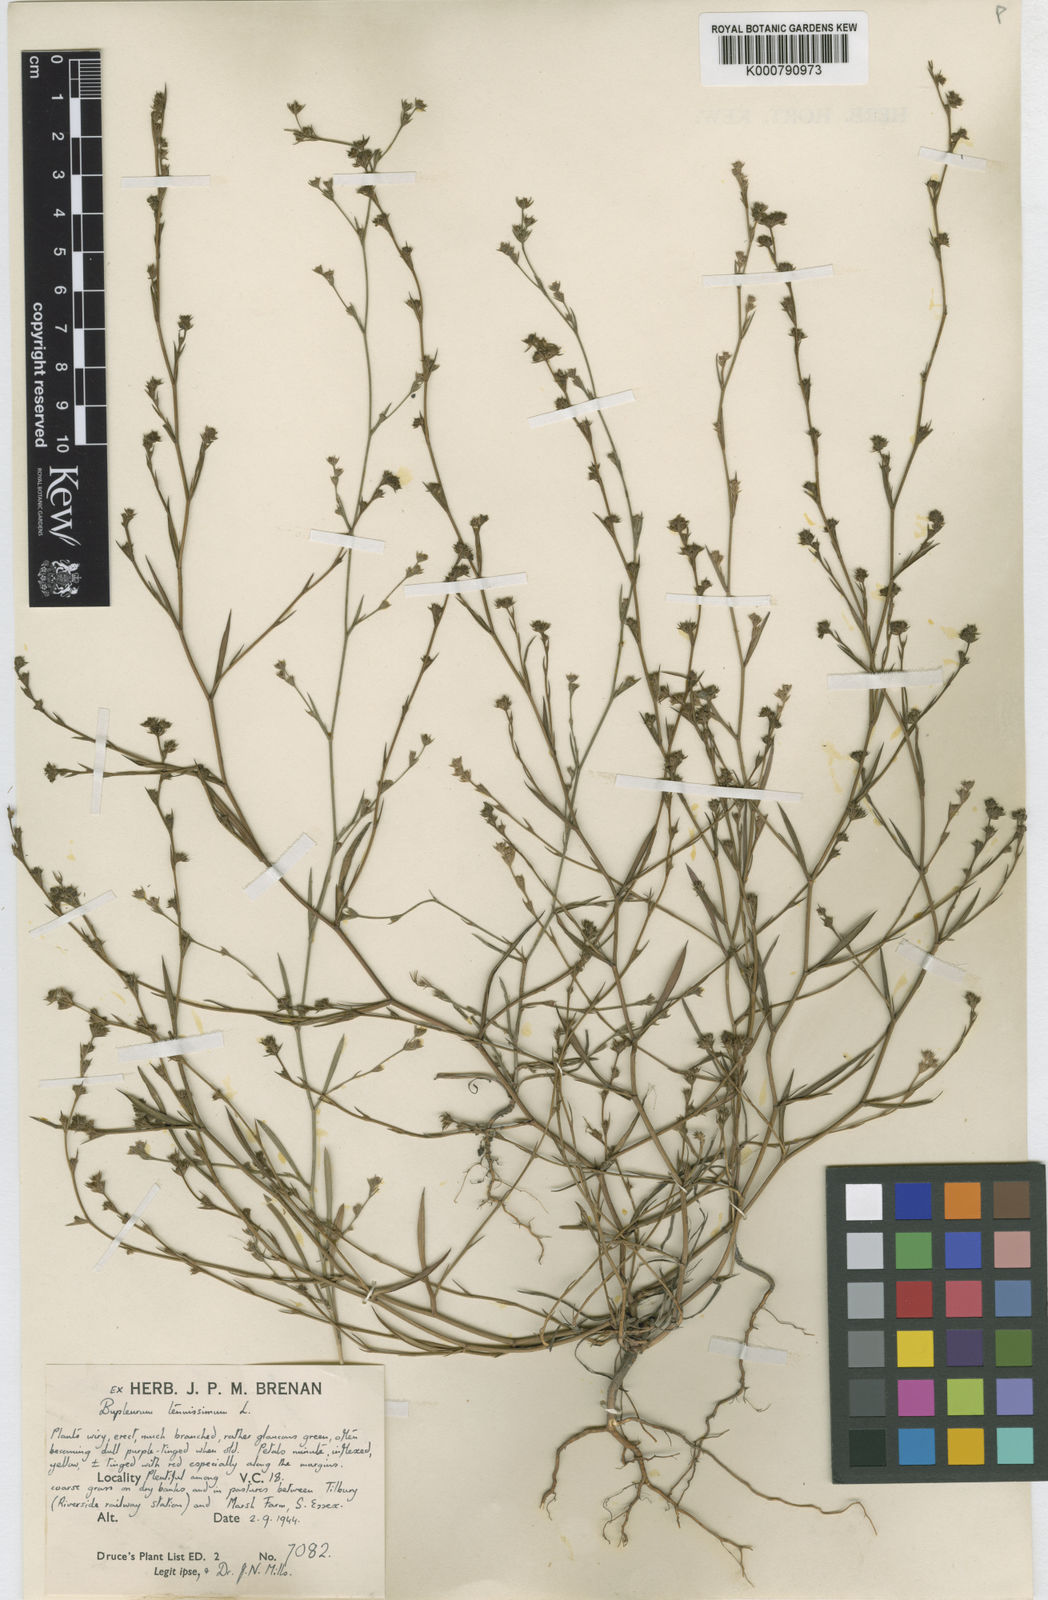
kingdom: Plantae
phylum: Tracheophyta
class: Magnoliopsida
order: Apiales
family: Apiaceae
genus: Bupleurum
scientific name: Bupleurum tenuissimum
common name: Slender hare's-ear
